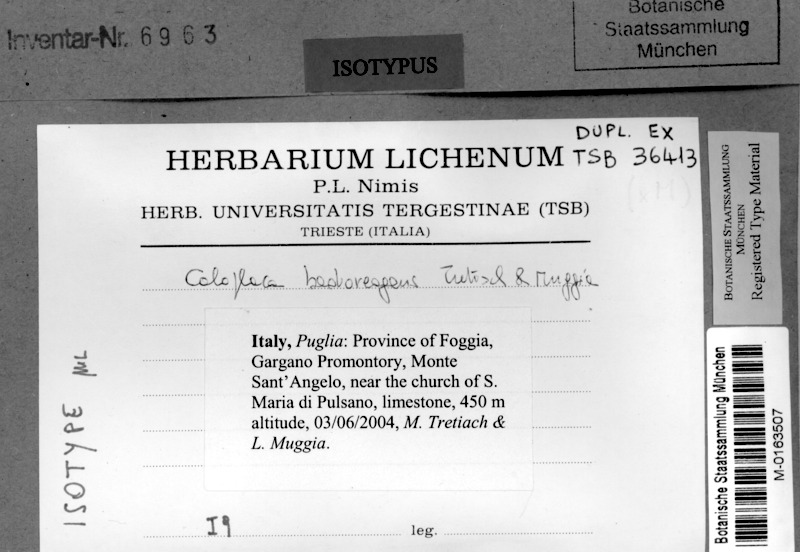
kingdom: Fungi
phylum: Ascomycota
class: Lecanoromycetes
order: Teloschistales
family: Teloschistaceae
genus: Pyrenodesmia
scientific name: Pyrenodesmia badioreagens
